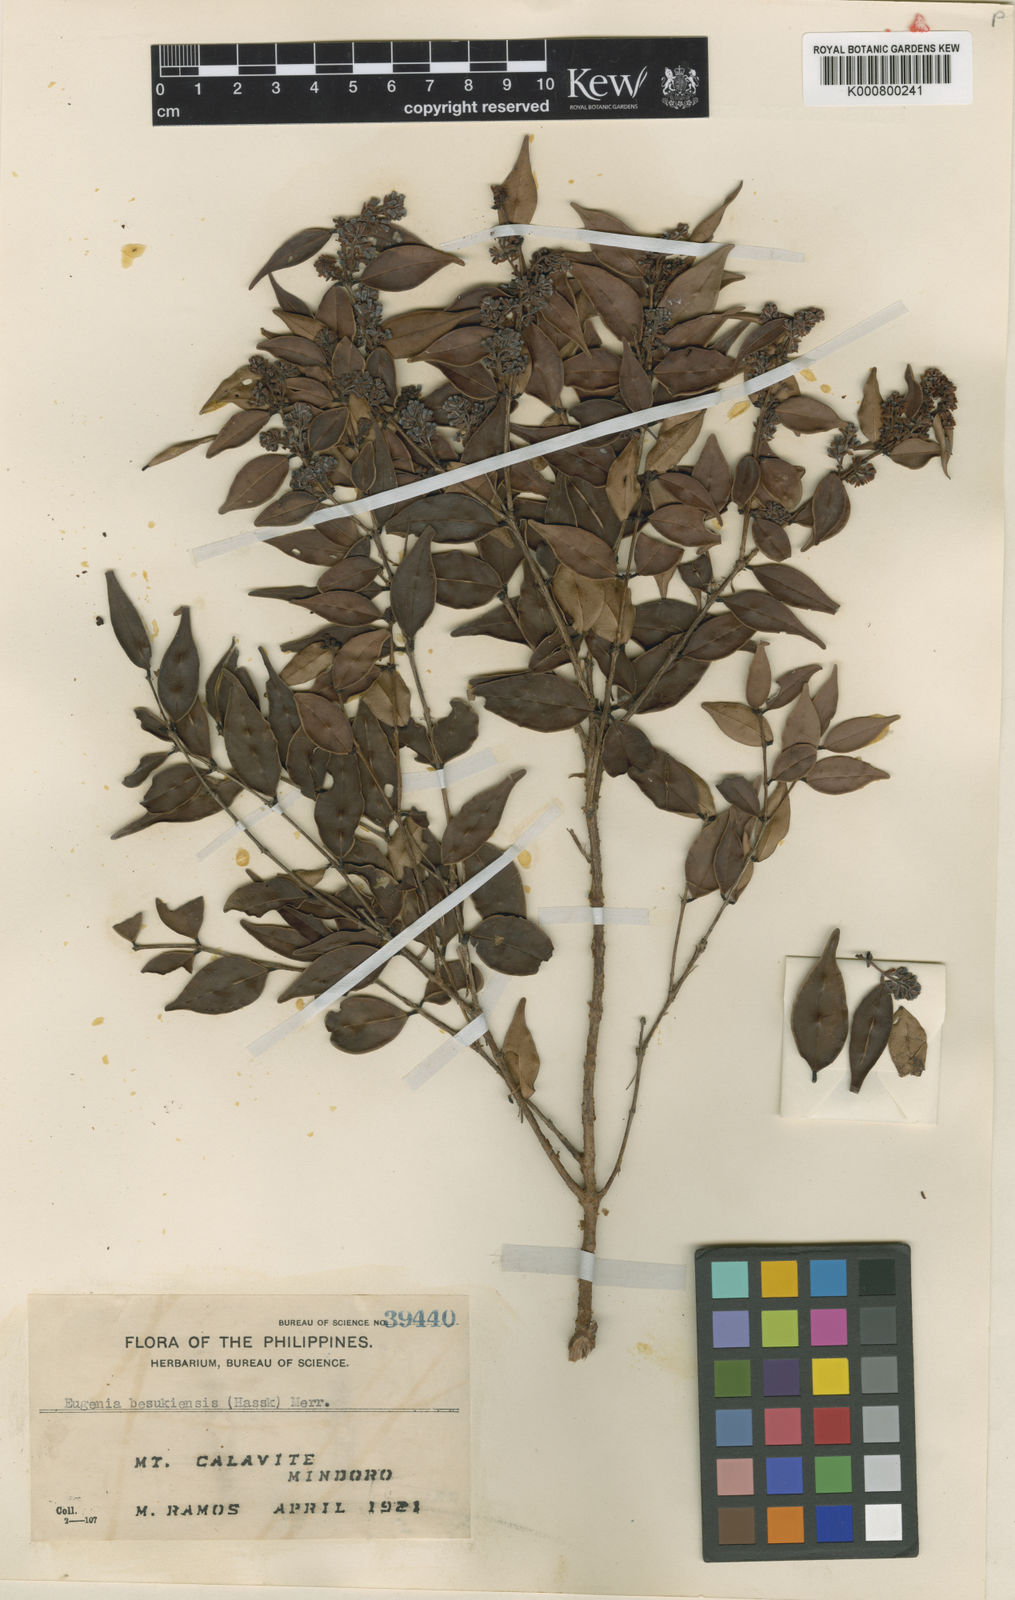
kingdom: Plantae
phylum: Tracheophyta
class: Magnoliopsida
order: Myrtales
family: Myrtaceae
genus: Syzygium
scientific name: Syzygium bankense
